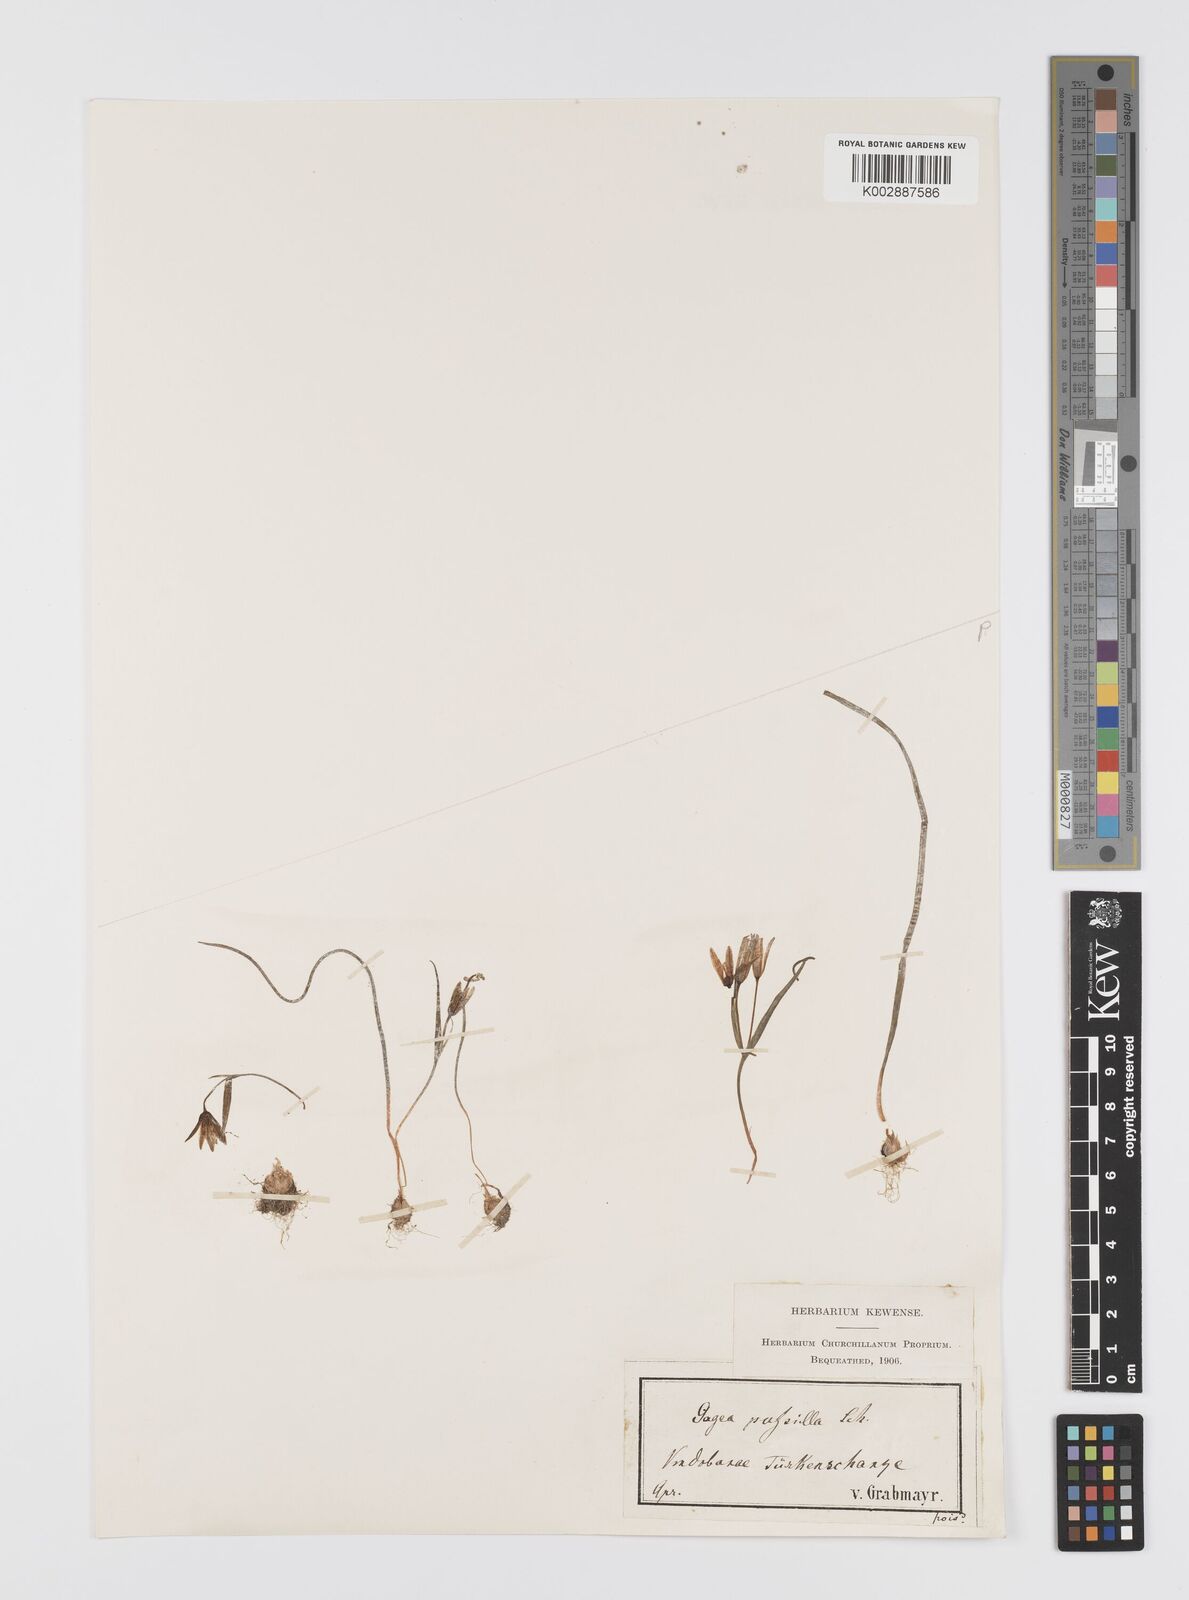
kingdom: Plantae
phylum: Tracheophyta
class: Liliopsida
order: Liliales
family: Liliaceae
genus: Gagea
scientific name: Gagea pusilla
